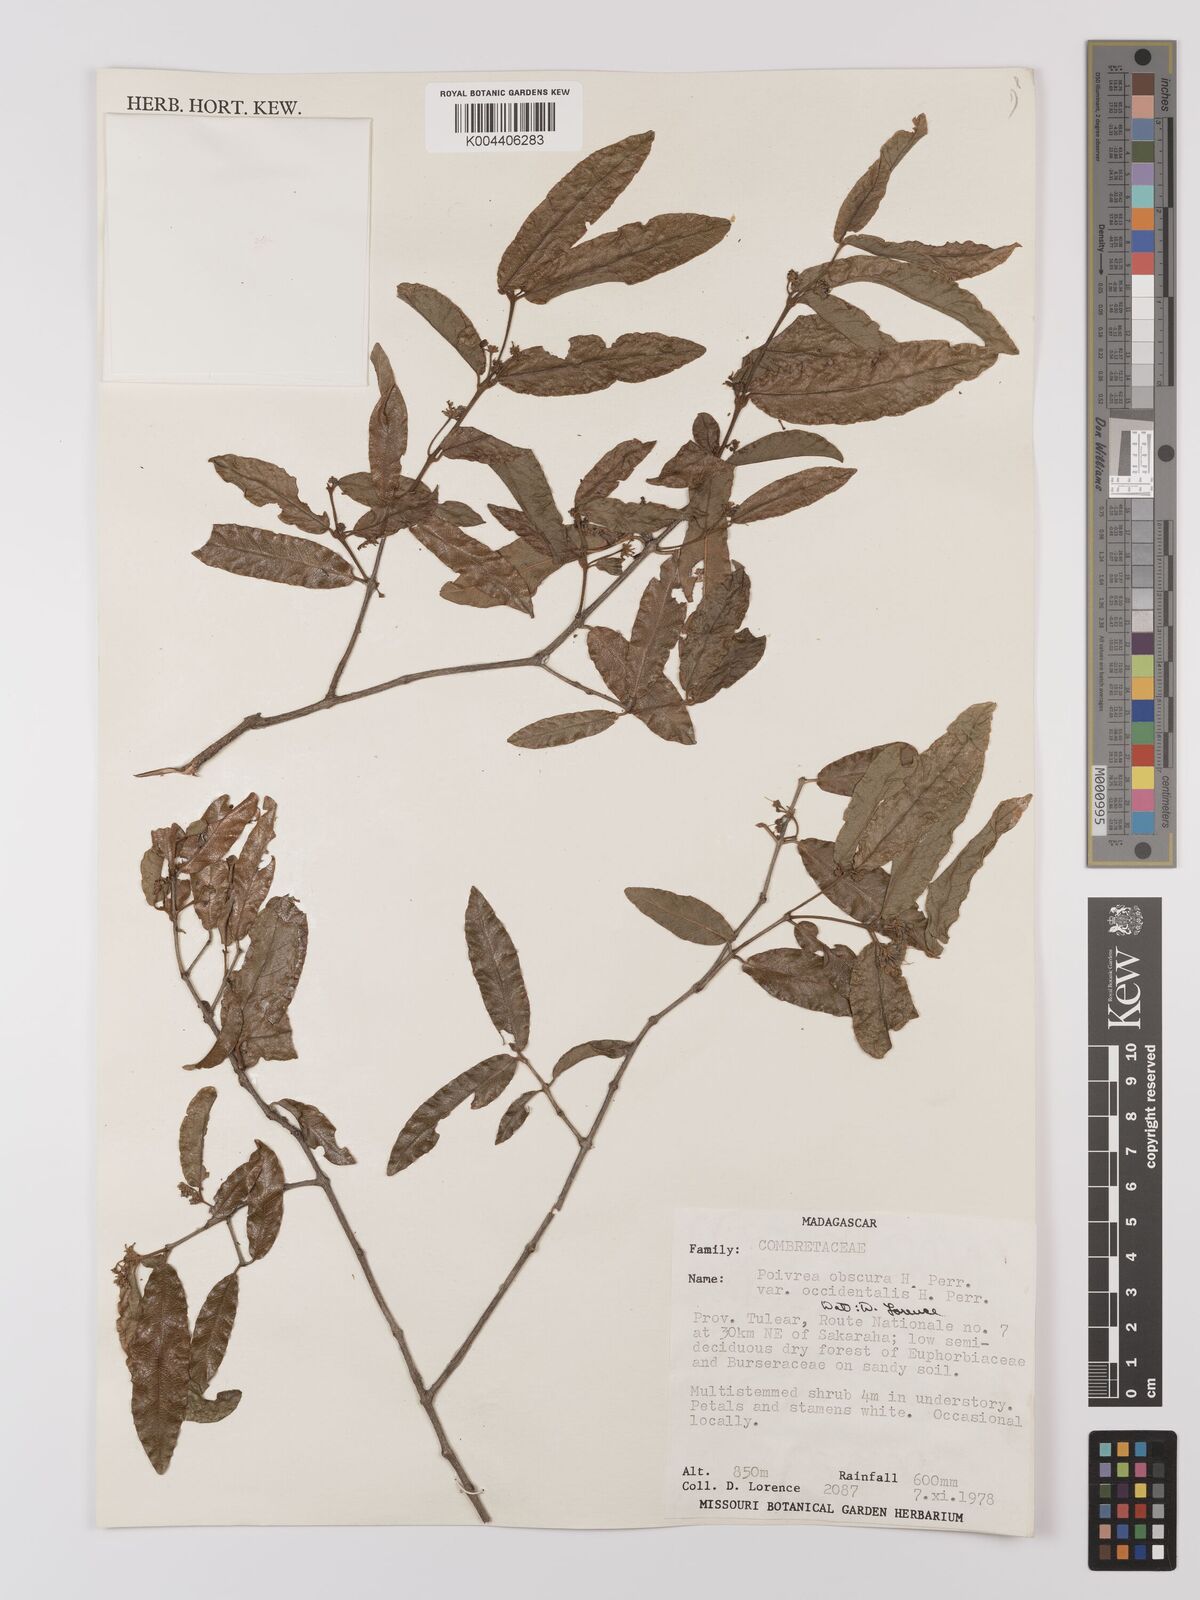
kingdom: Plantae
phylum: Tracheophyta
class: Magnoliopsida
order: Myrtales
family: Combretaceae
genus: Combretum
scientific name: Combretum obscurum
